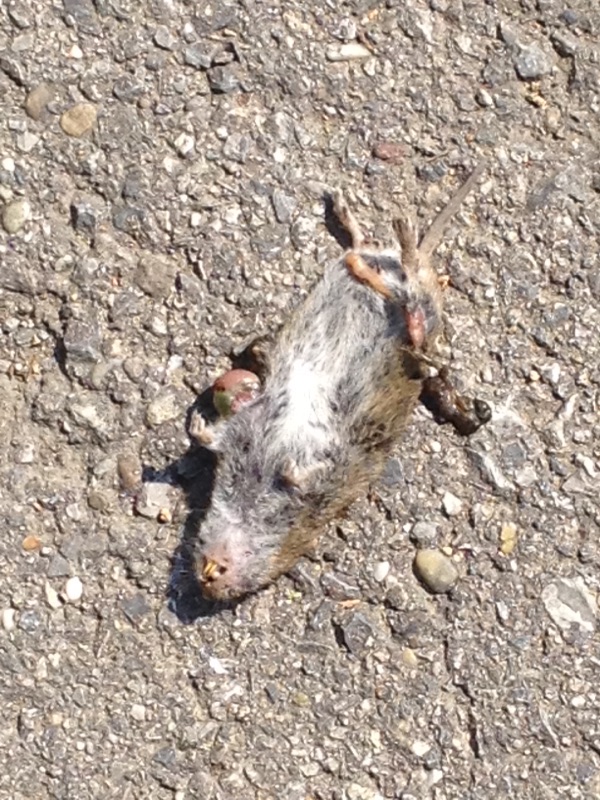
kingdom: Animalia
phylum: Chordata
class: Mammalia
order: Rodentia
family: Cricetidae
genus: Microtus
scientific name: Microtus
